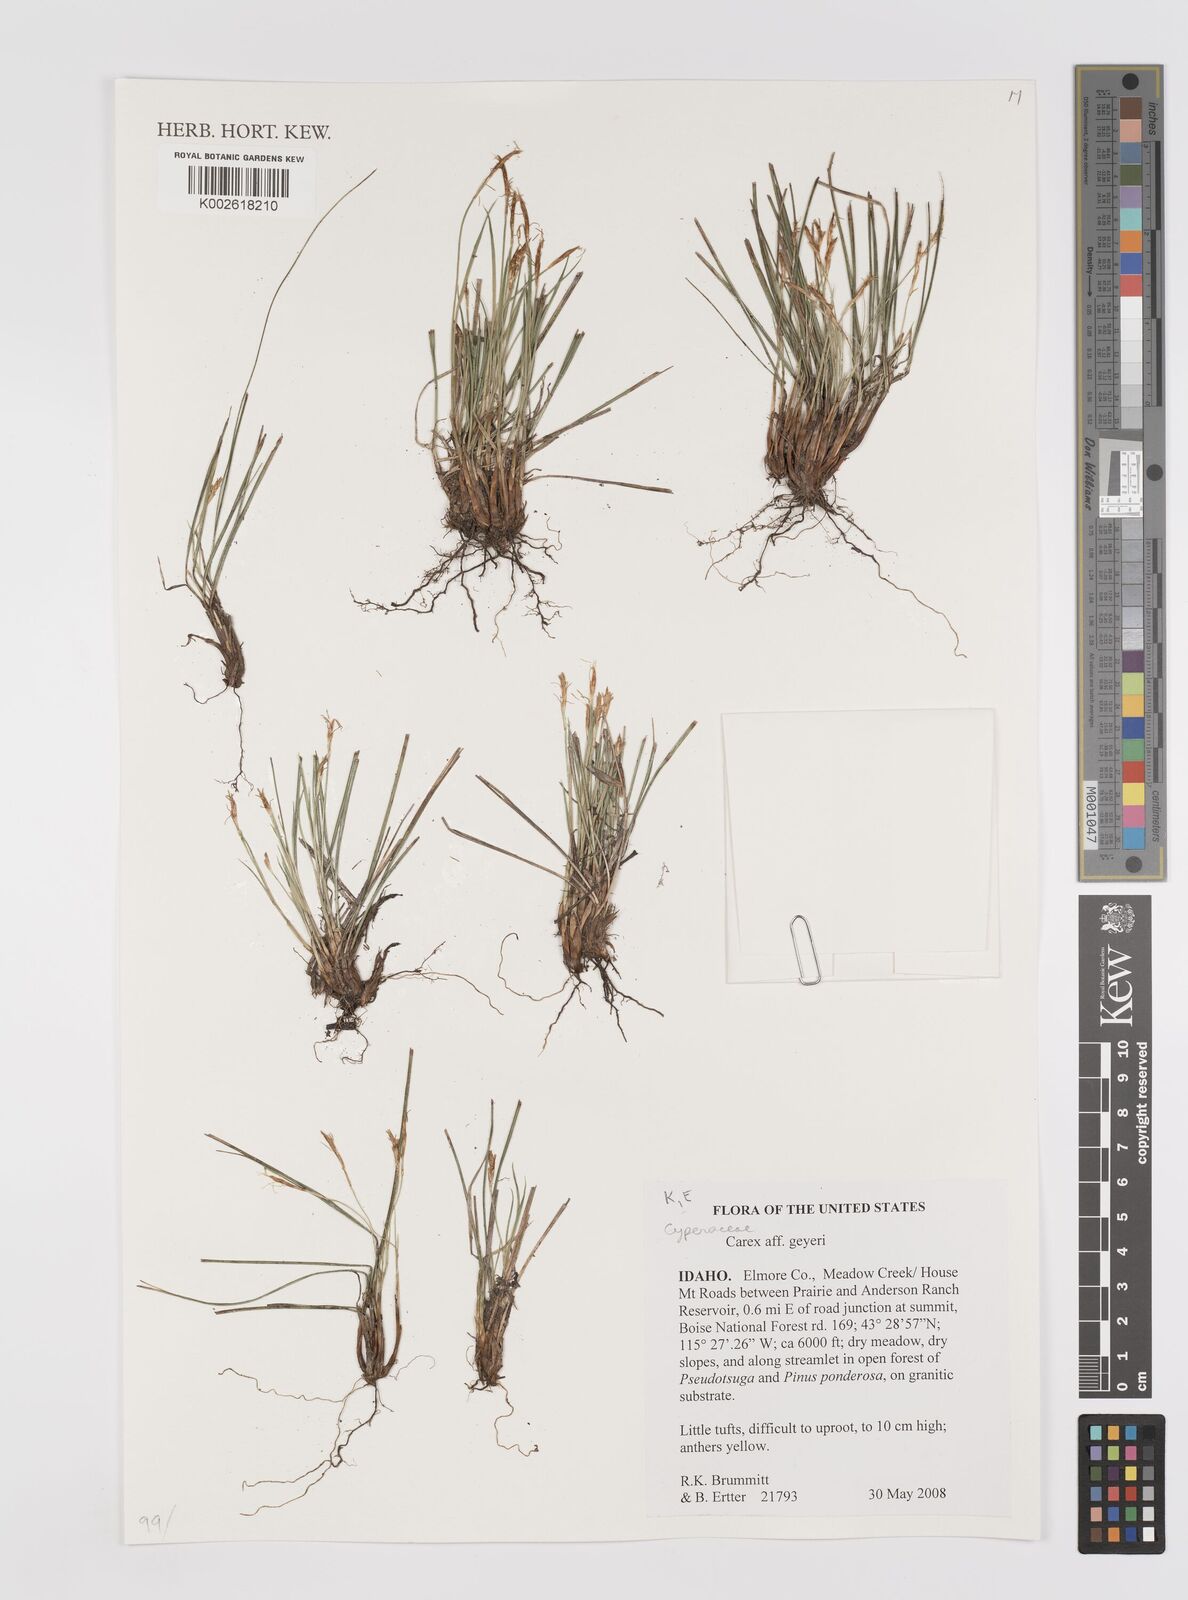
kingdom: Plantae
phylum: Tracheophyta
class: Liliopsida
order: Poales
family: Cyperaceae
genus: Carex
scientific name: Carex geyeri
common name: Elk sedge
